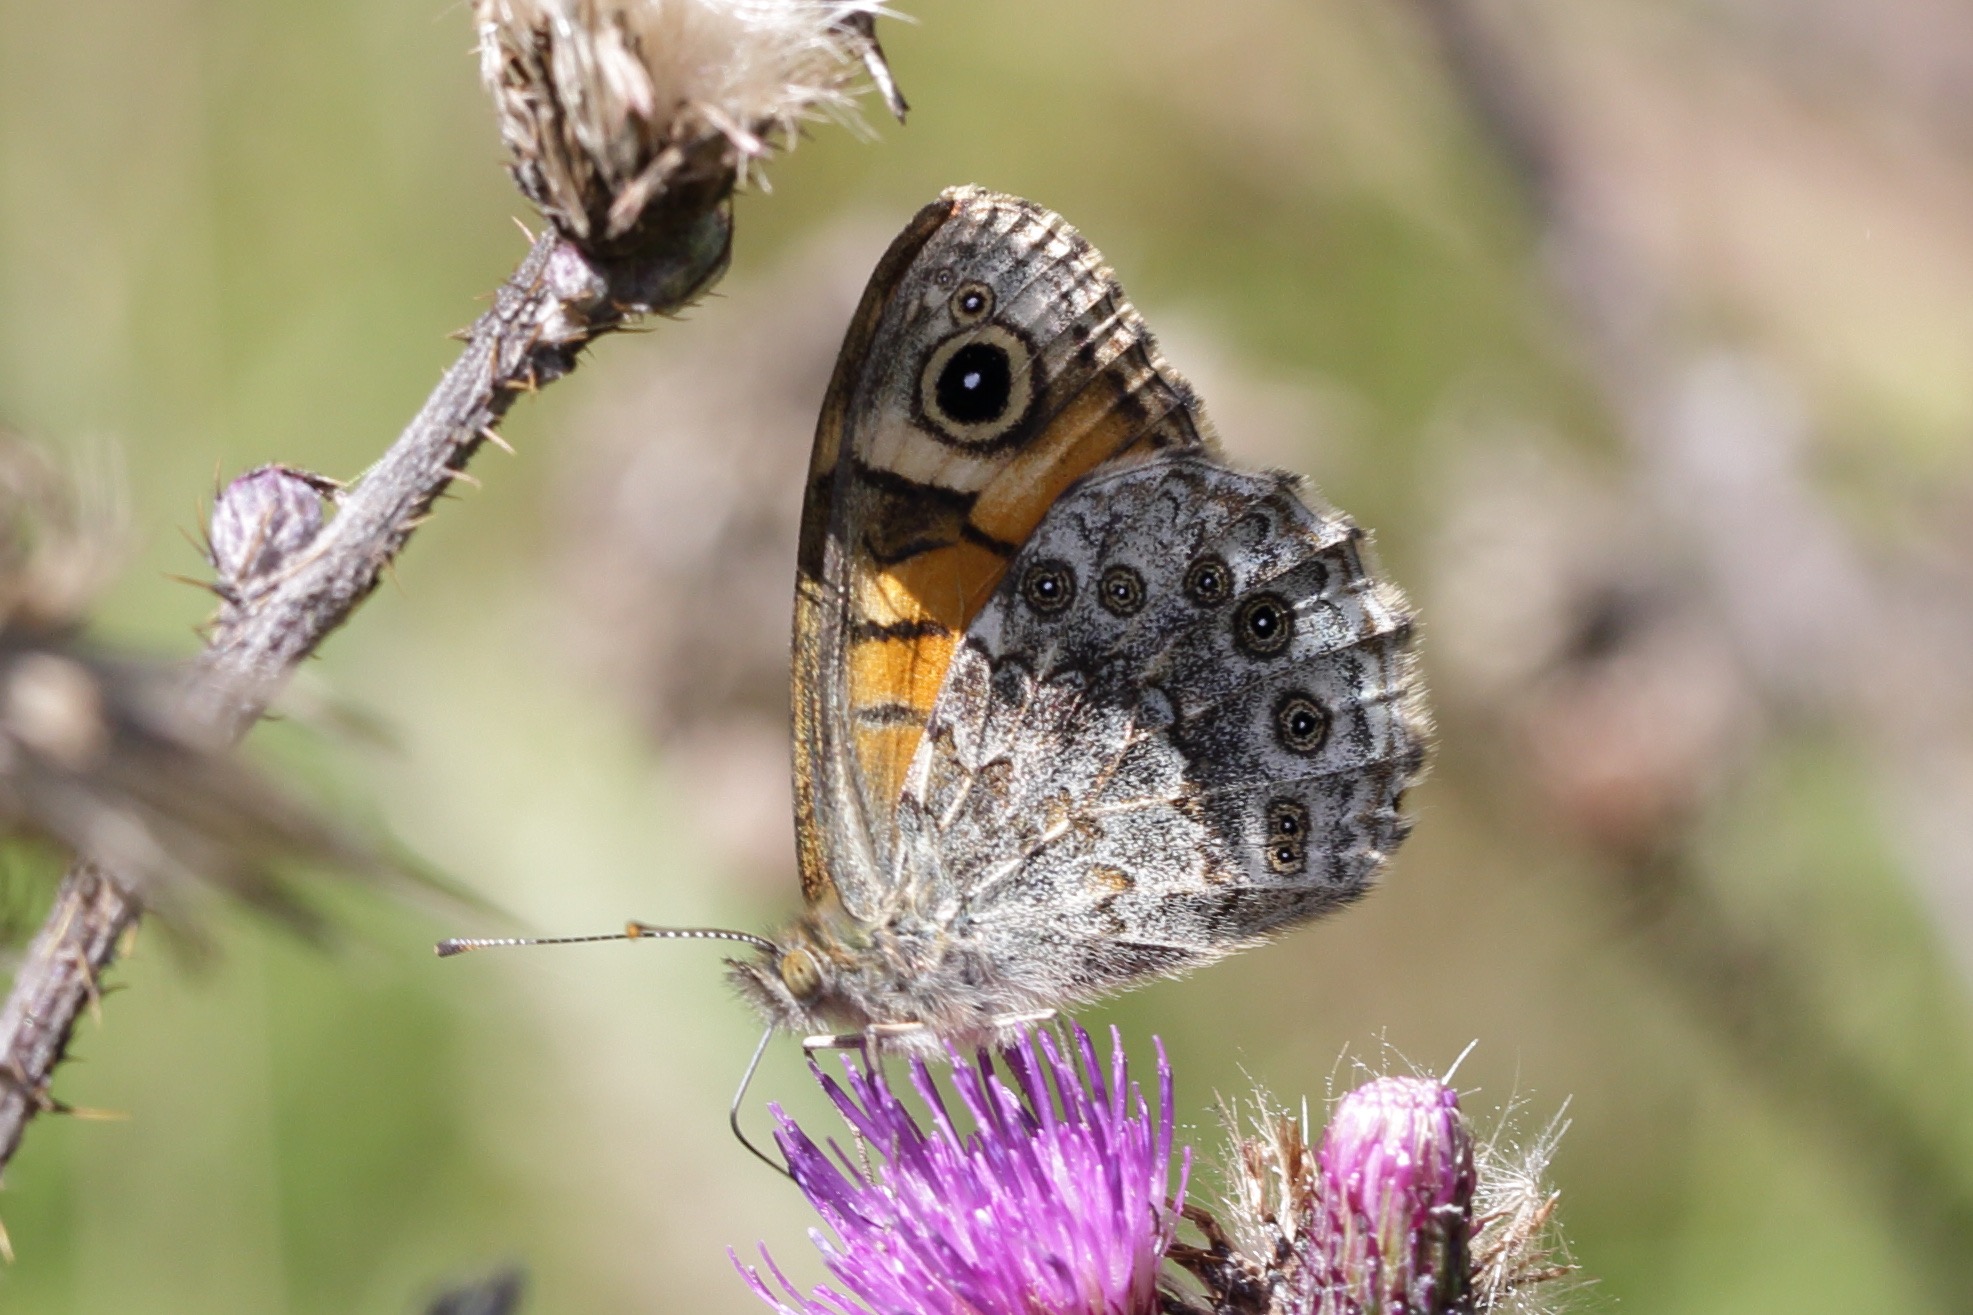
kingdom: Animalia
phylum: Arthropoda
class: Insecta
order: Lepidoptera
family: Nymphalidae
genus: Pararge
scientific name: Pararge Lasiommata megera
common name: Vejrandøje
